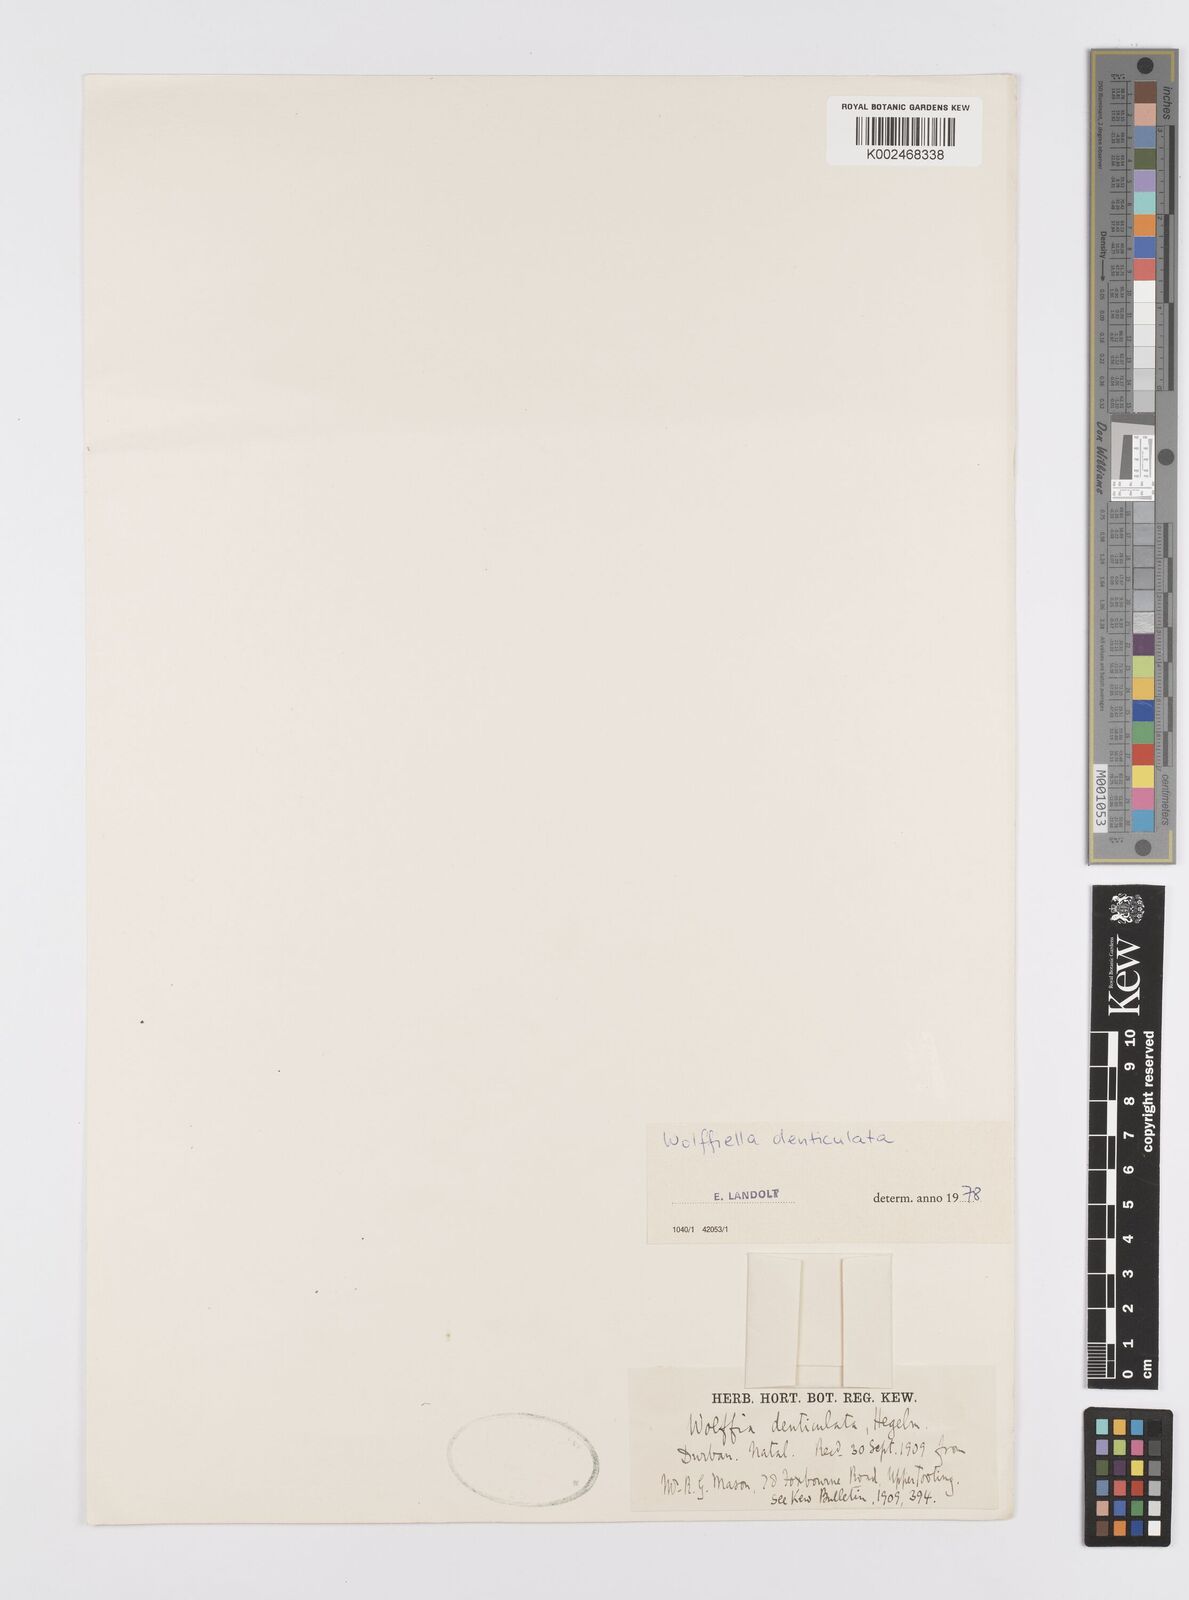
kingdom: Plantae
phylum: Tracheophyta
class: Liliopsida
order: Alismatales
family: Araceae
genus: Wolffiella
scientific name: Wolffiella denticulata
